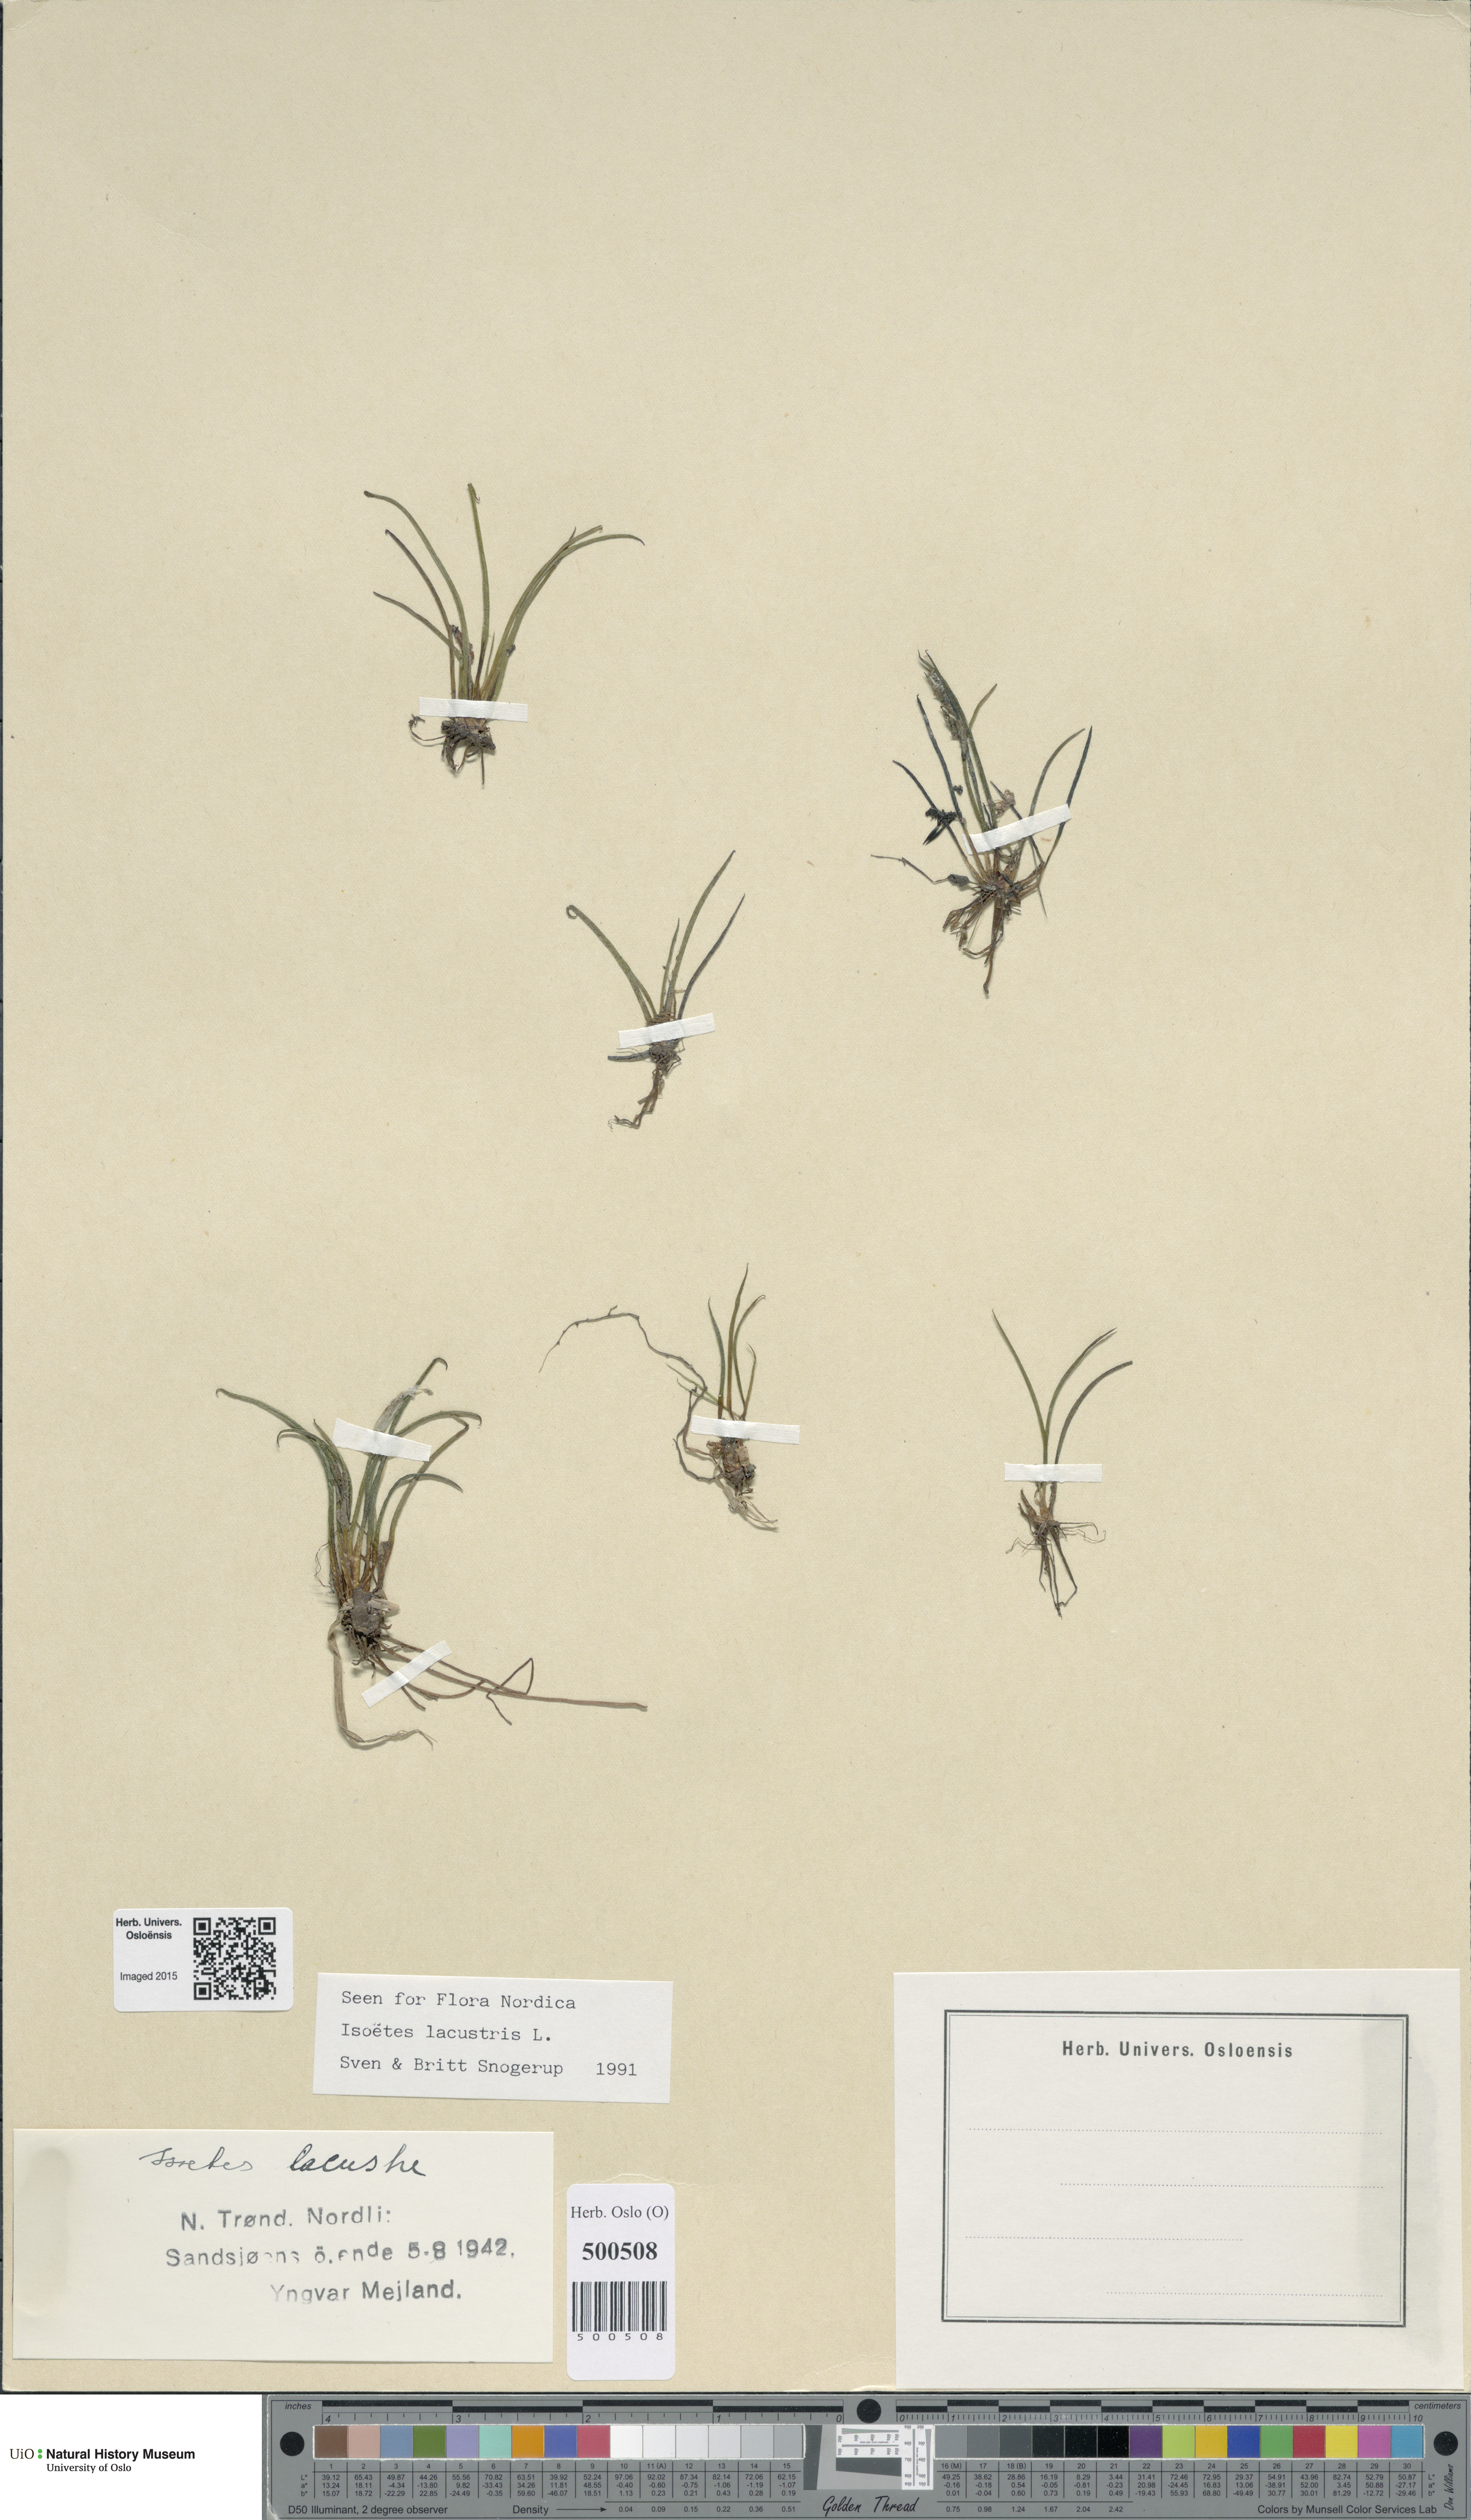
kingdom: Plantae
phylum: Tracheophyta
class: Lycopodiopsida
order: Isoetales
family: Isoetaceae
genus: Isoetes
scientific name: Isoetes lacustris
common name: Common quillwort
